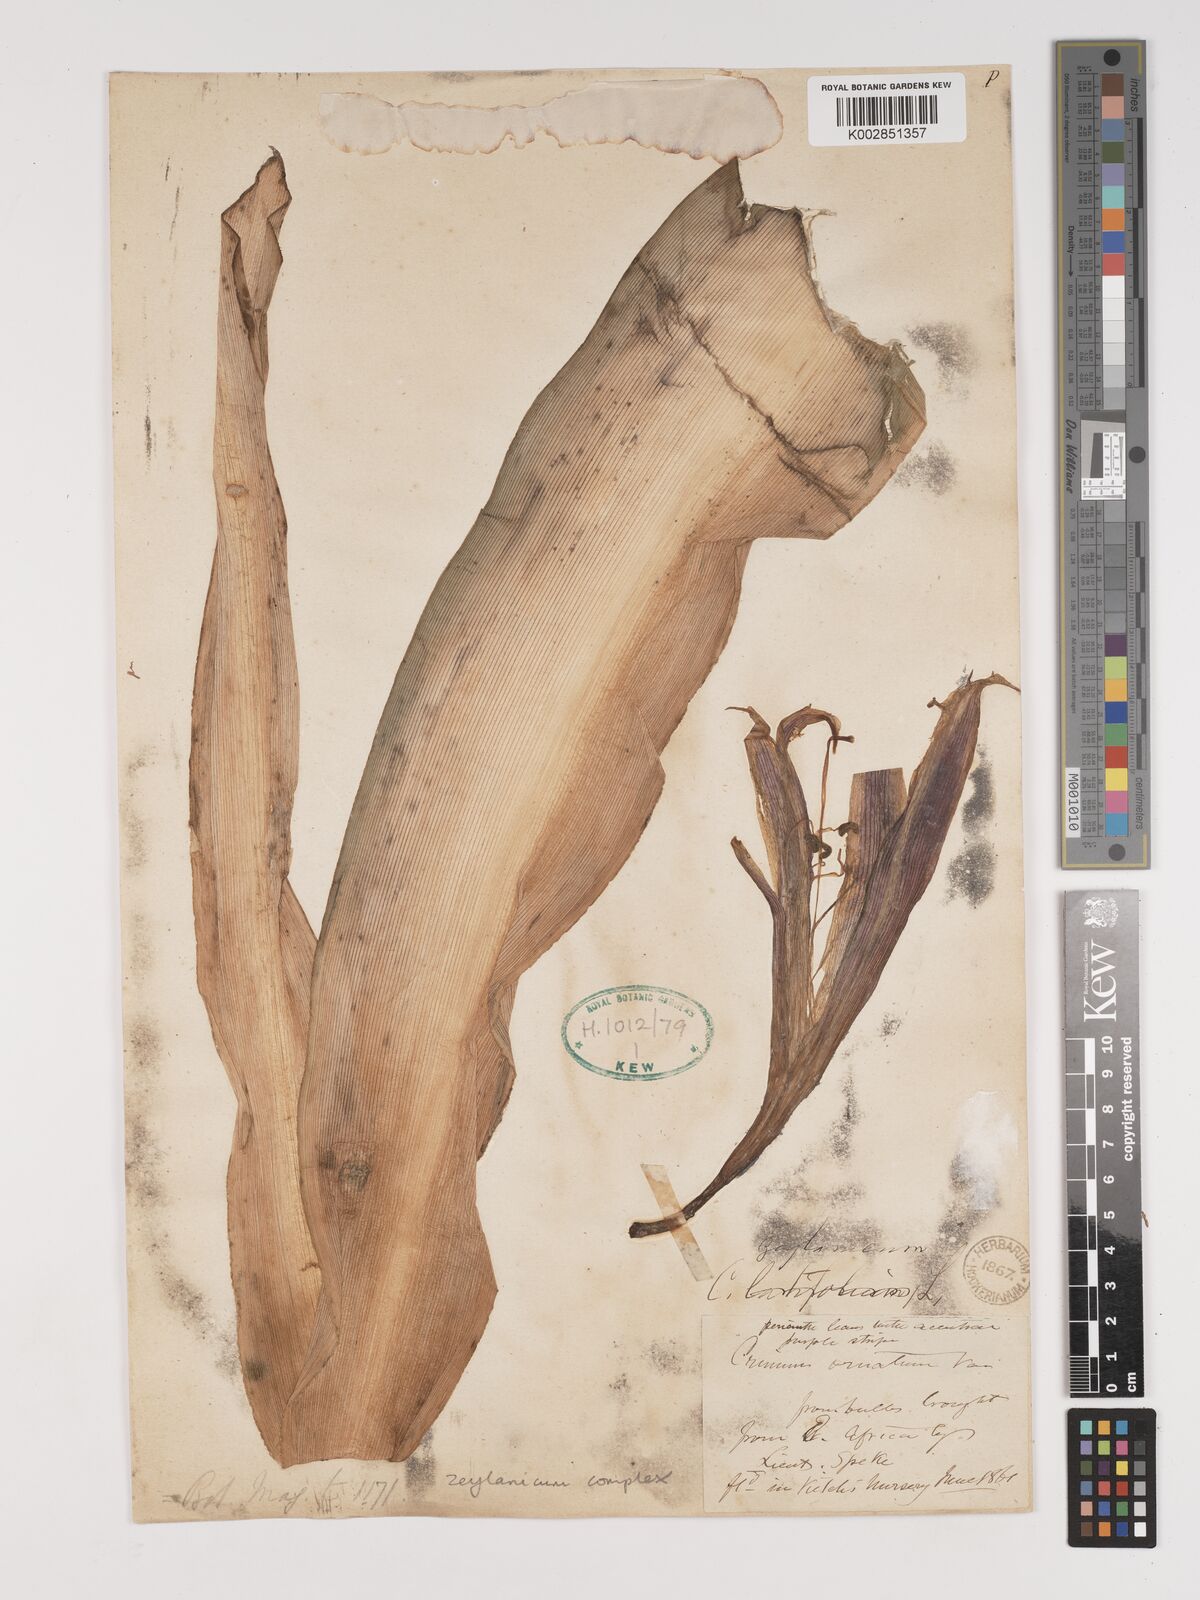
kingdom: Plantae
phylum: Tracheophyta
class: Liliopsida
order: Asparagales
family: Amaryllidaceae
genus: Crinum
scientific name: Crinum zeylanicum
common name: Ceylon swamplily
